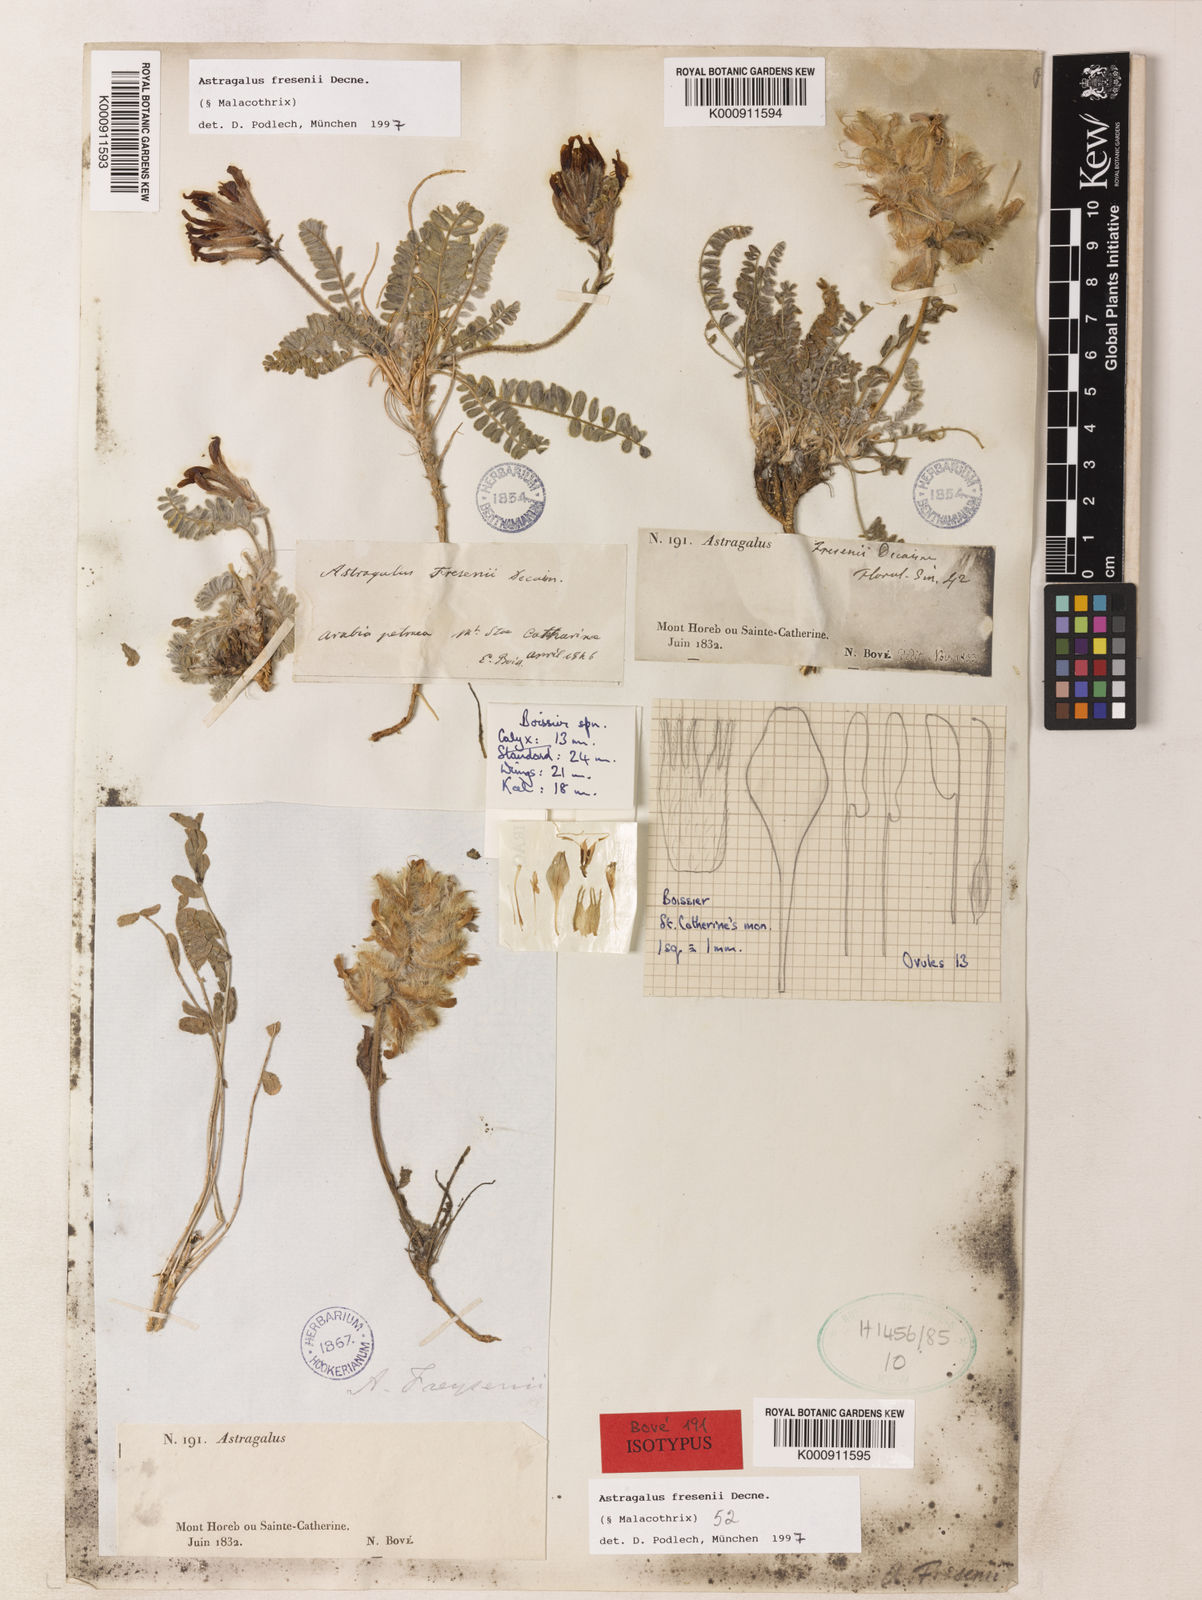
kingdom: Plantae
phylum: Tracheophyta
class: Magnoliopsida
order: Fabales
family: Fabaceae
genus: Astragalus
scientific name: Astragalus fresenii
